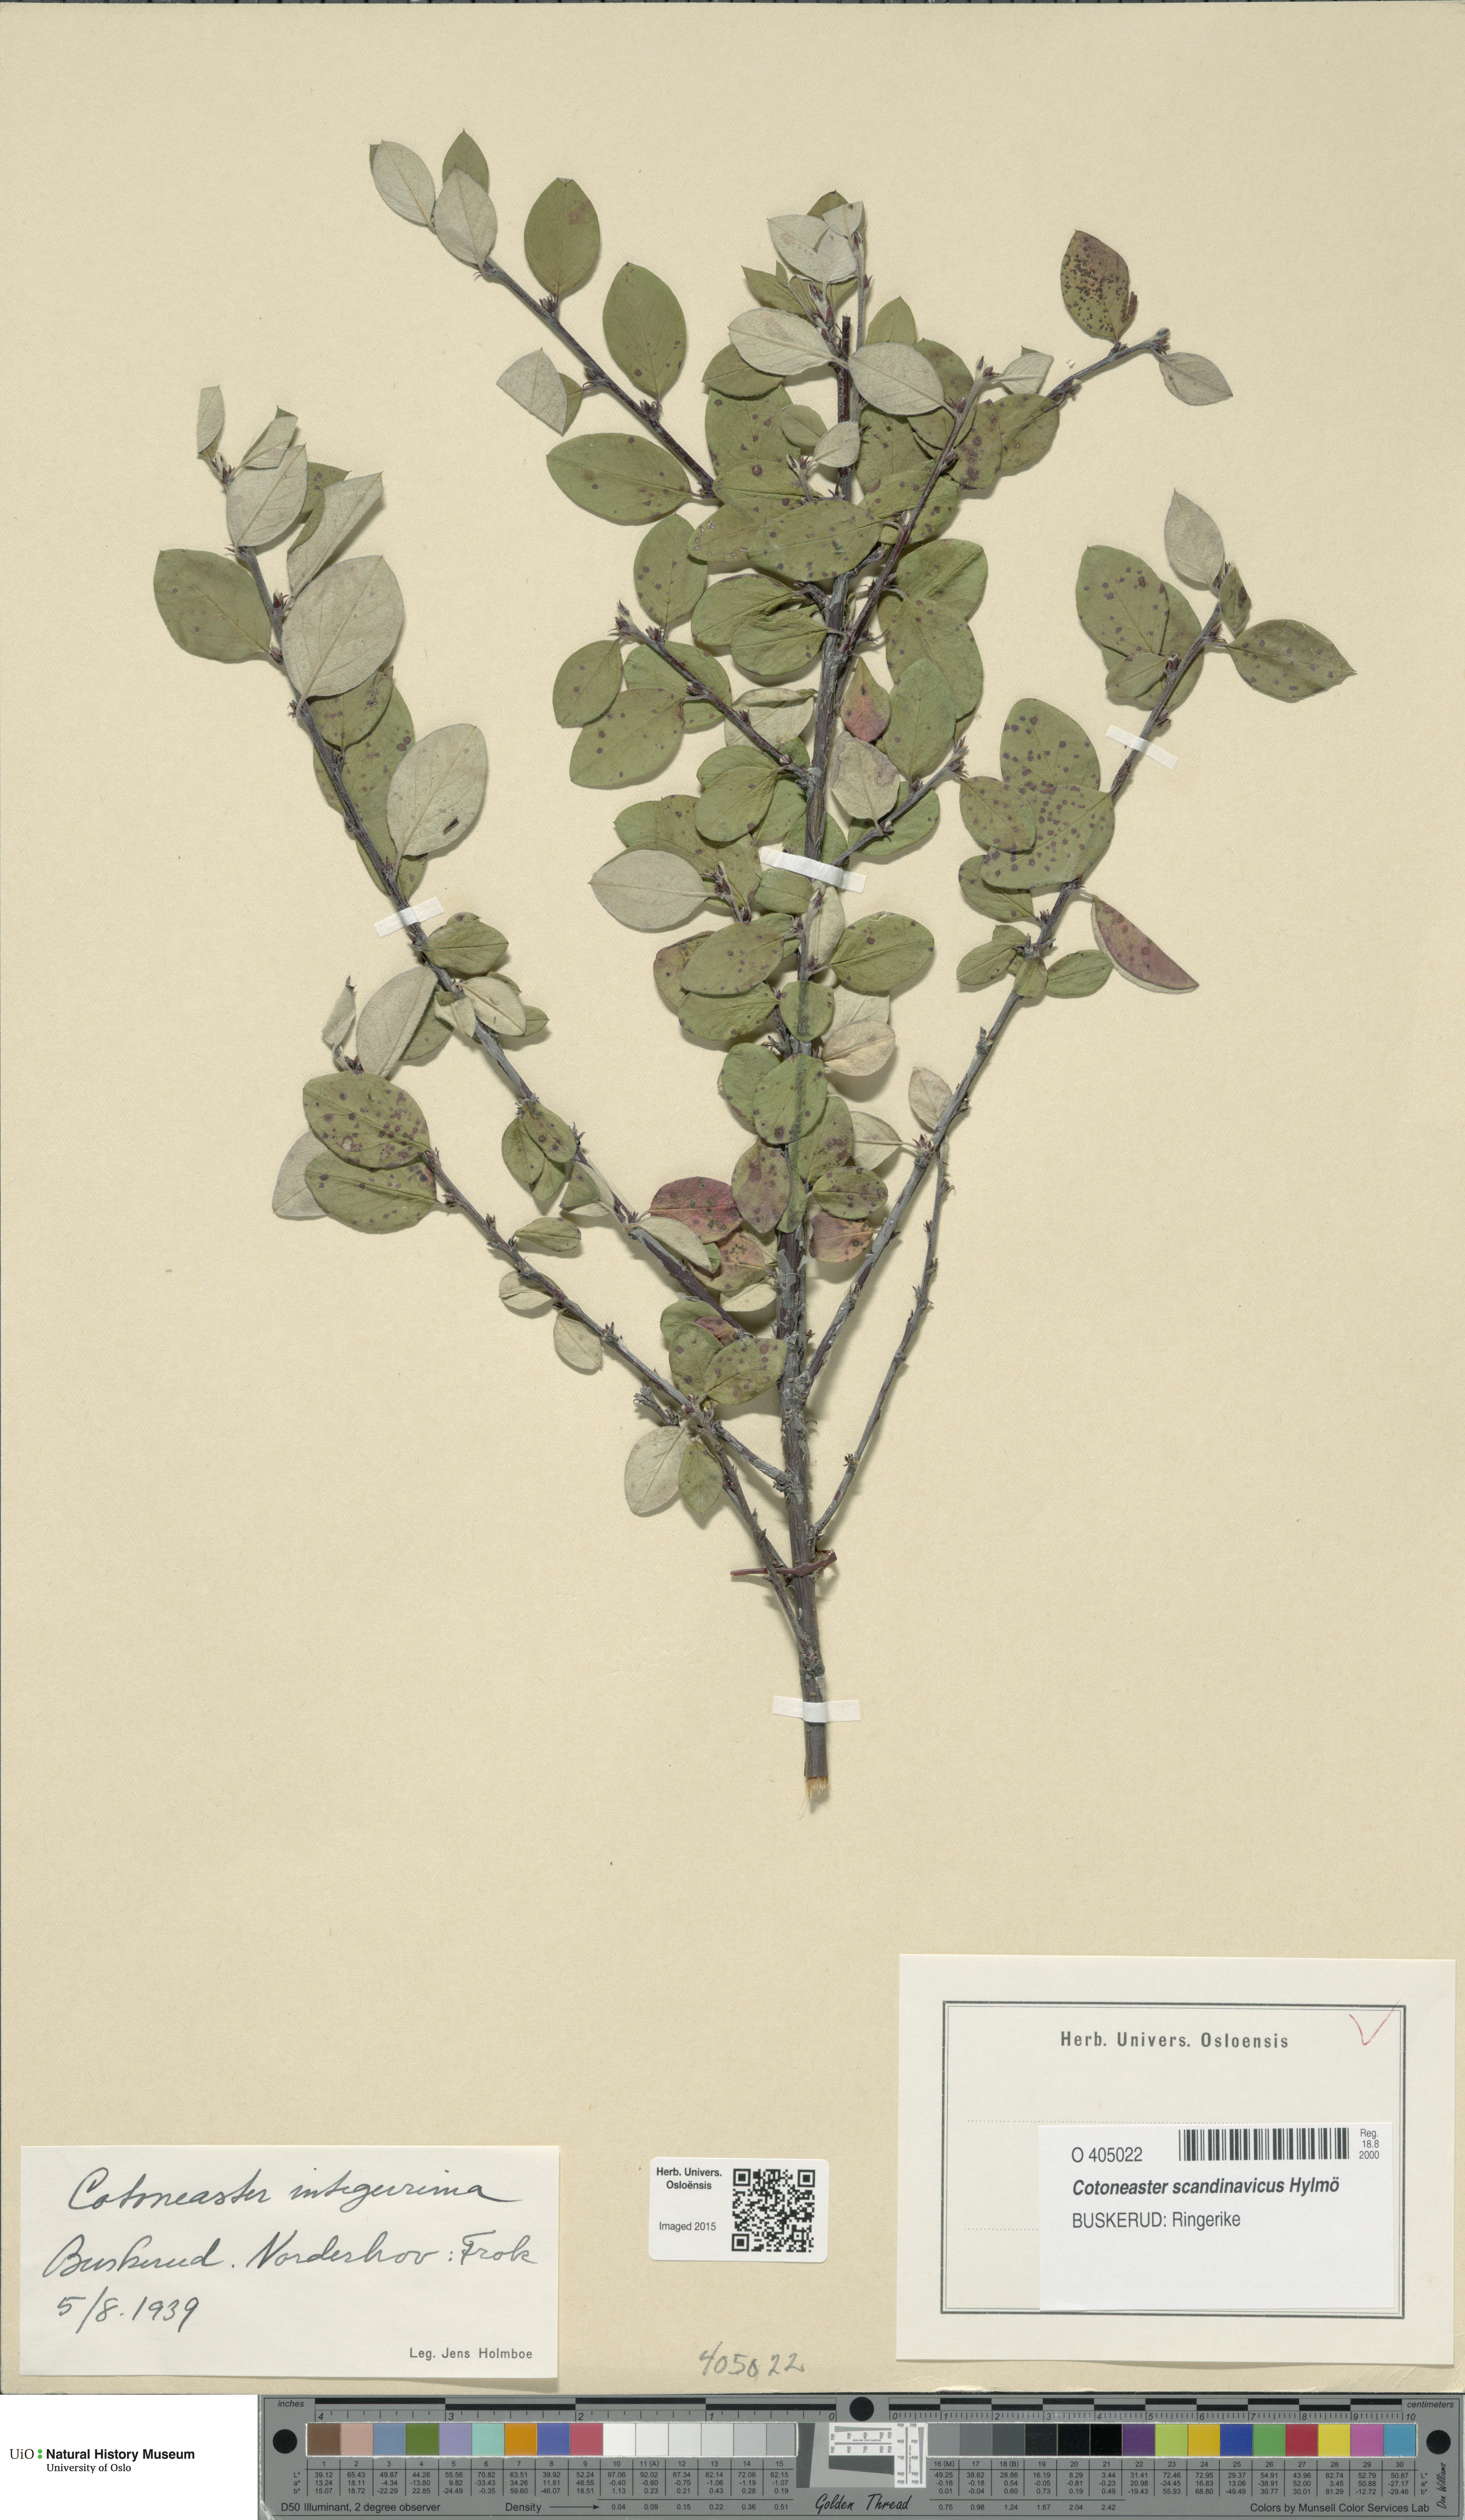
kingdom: Plantae
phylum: Tracheophyta
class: Magnoliopsida
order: Rosales
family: Rosaceae
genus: Cotoneaster
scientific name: Cotoneaster integerrimus
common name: Wild cotoneaster
